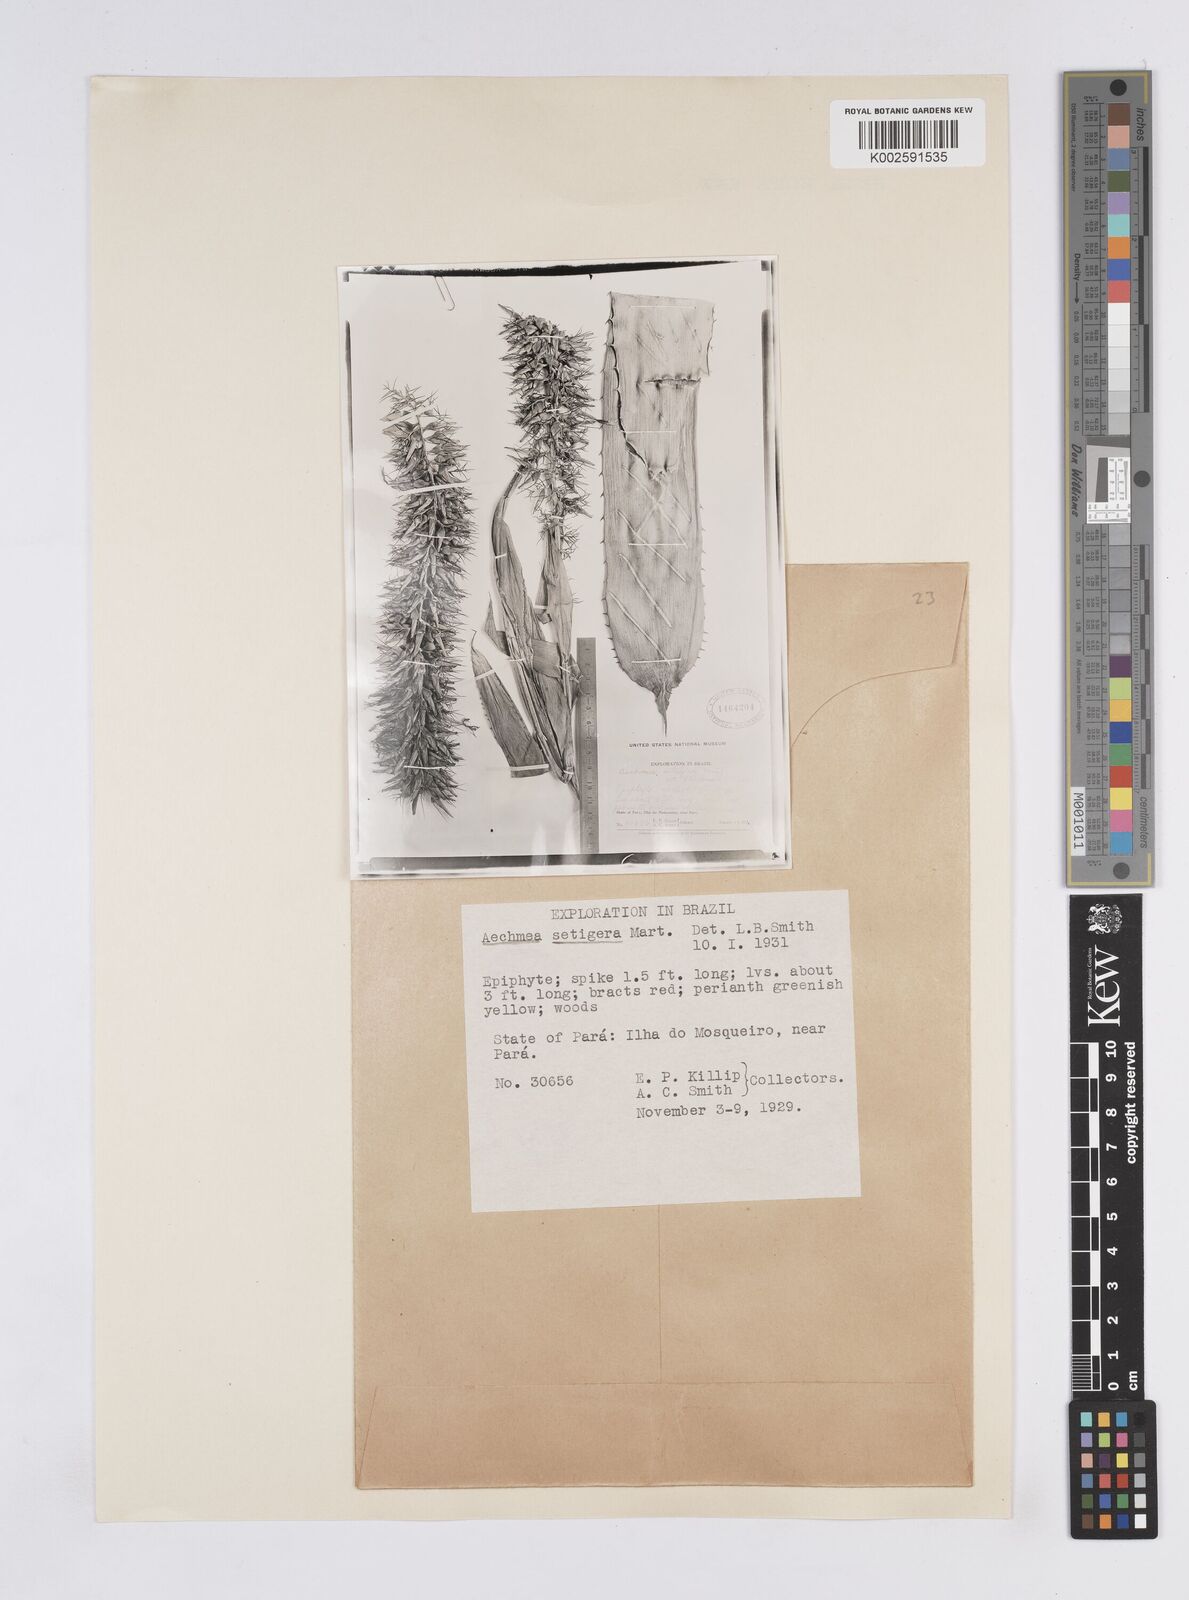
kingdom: Plantae
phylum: Tracheophyta
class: Liliopsida
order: Poales
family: Bromeliaceae
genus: Aechmea
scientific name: Aechmea setigera
